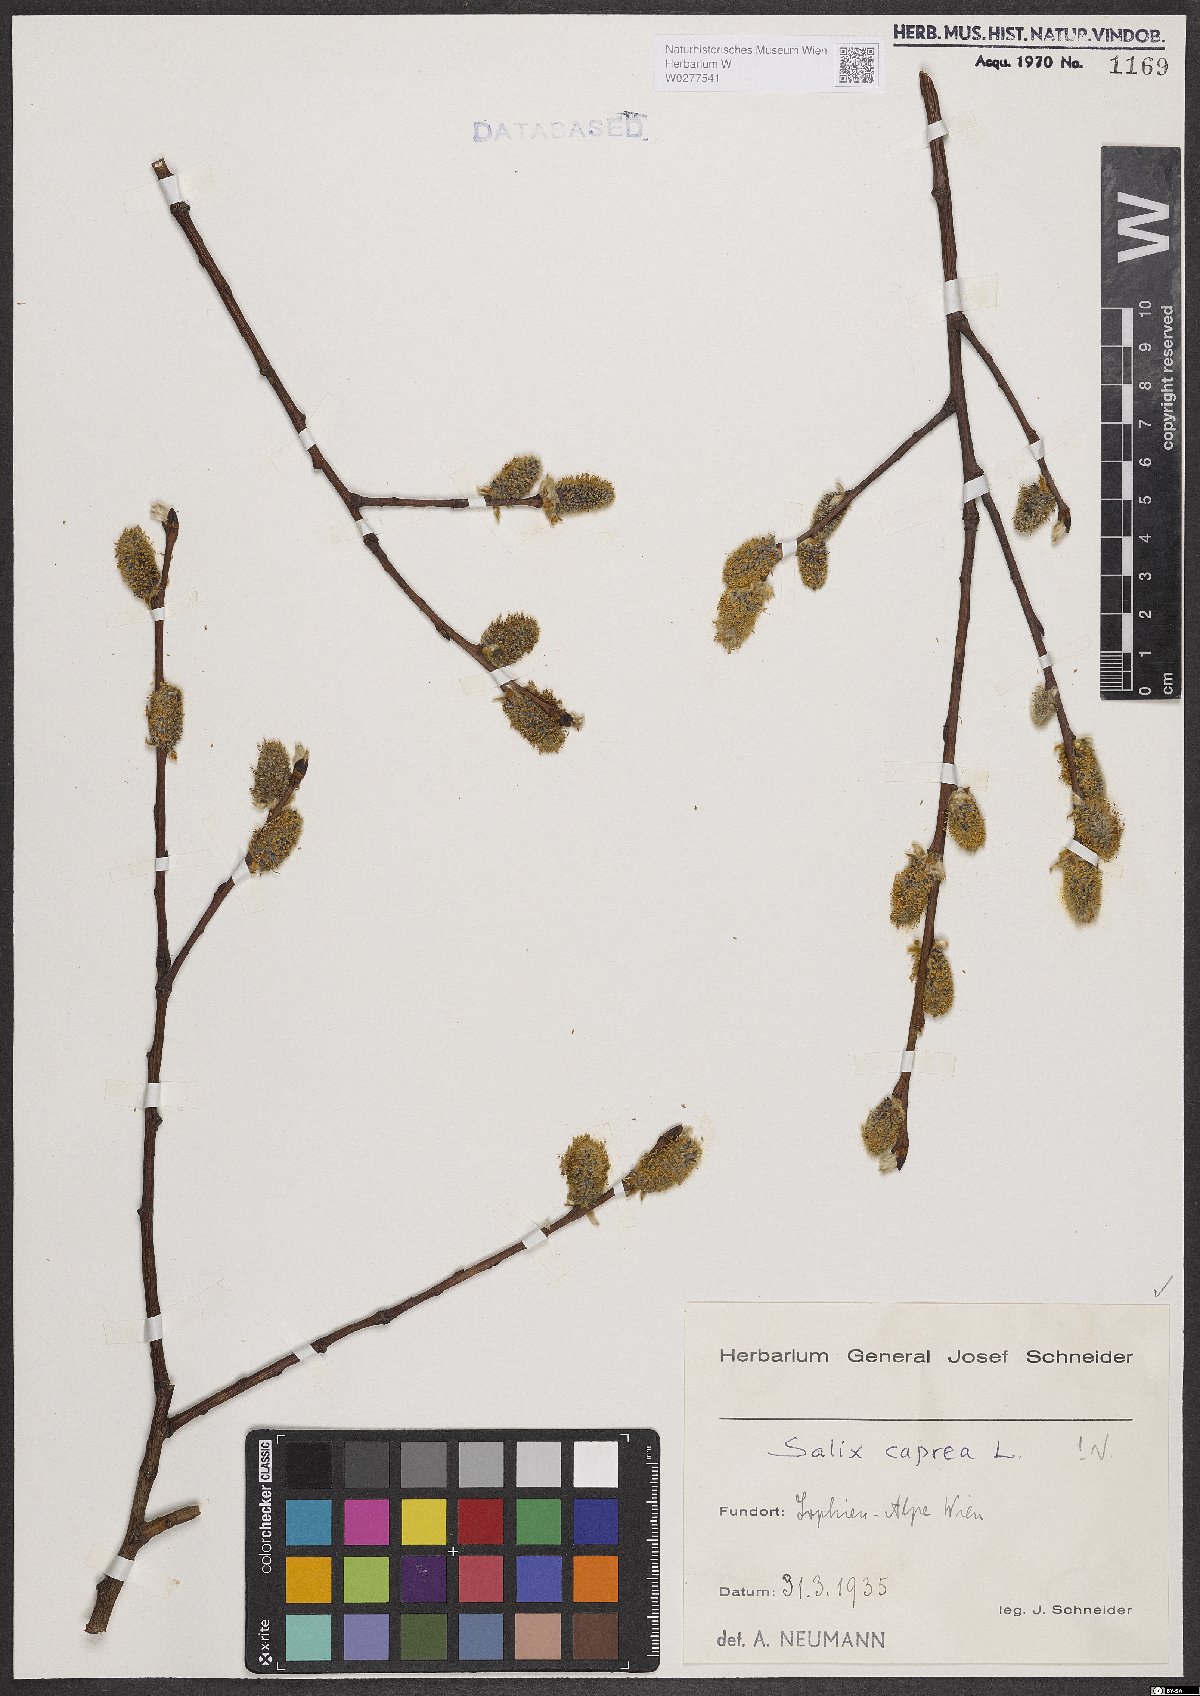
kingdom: Plantae
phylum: Tracheophyta
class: Magnoliopsida
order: Malpighiales
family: Salicaceae
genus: Salix
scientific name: Salix caprea
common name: Goat willow
